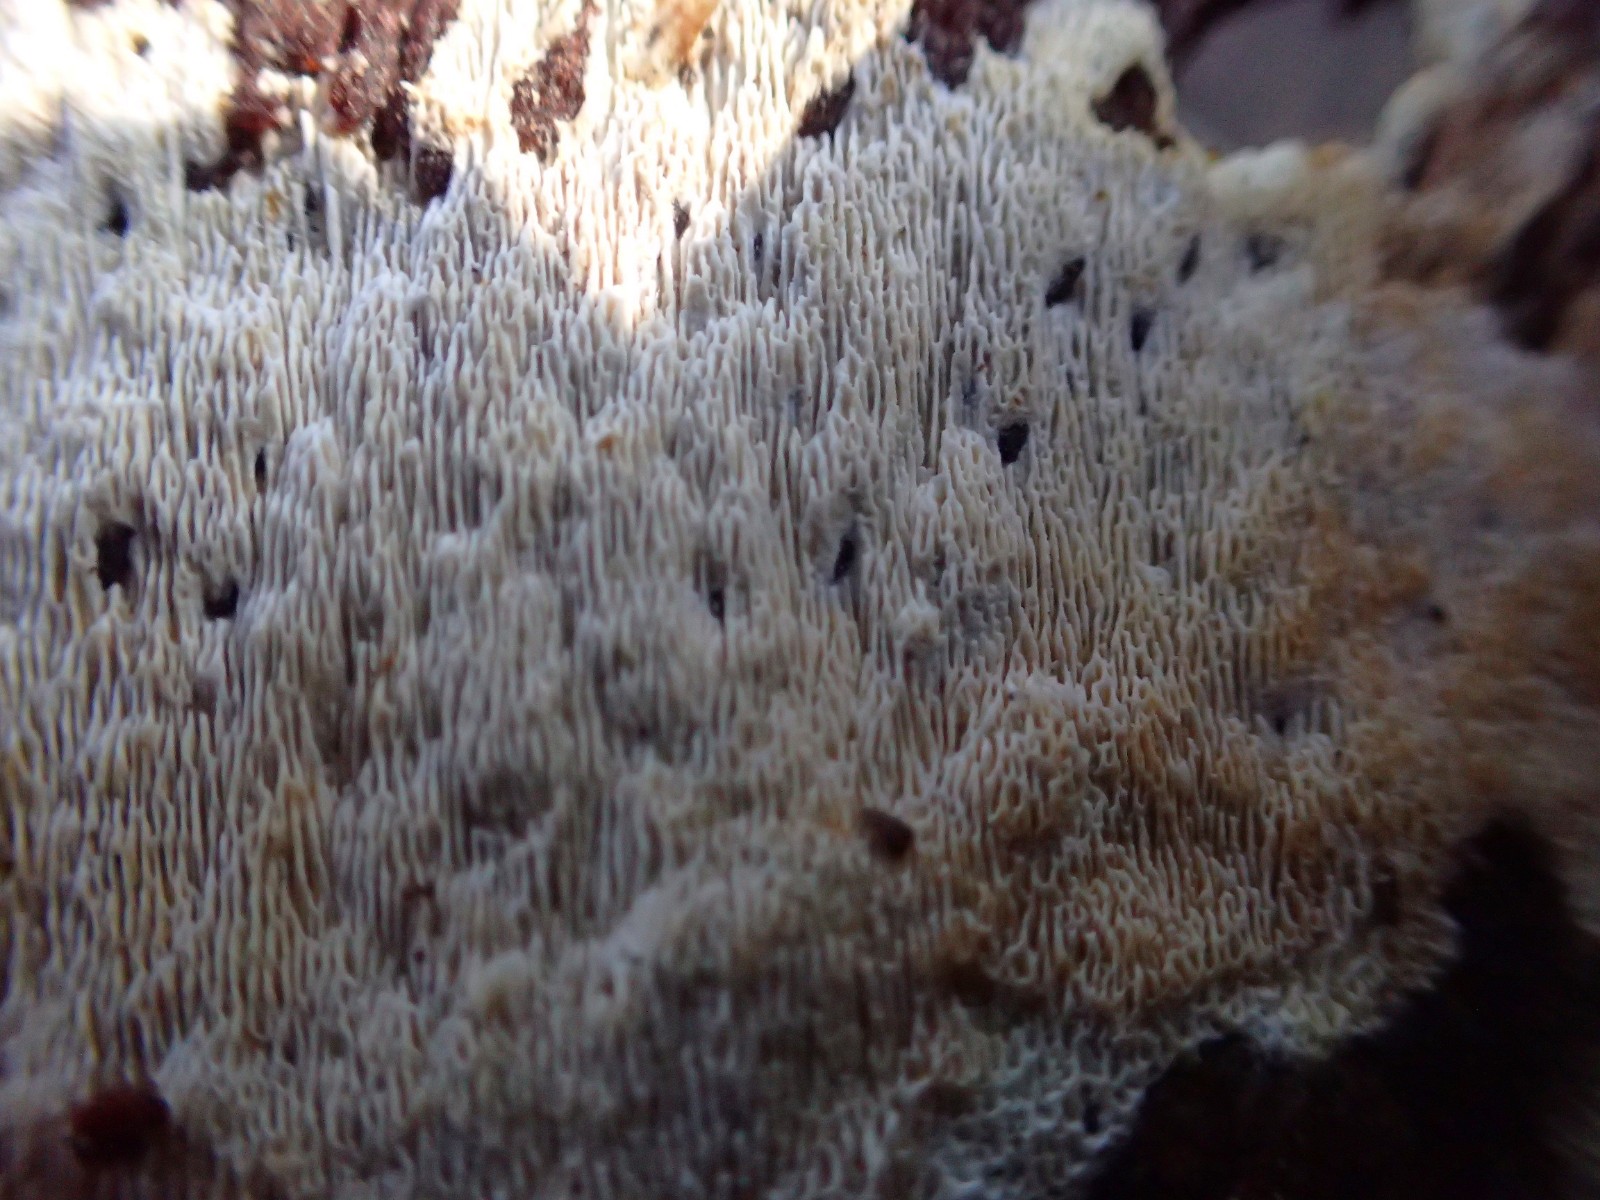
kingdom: Fungi
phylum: Basidiomycota
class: Agaricomycetes
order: Hymenochaetales
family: Schizoporaceae
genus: Xylodon
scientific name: Xylodon subtropicus
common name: labyrint-tandsvamp
